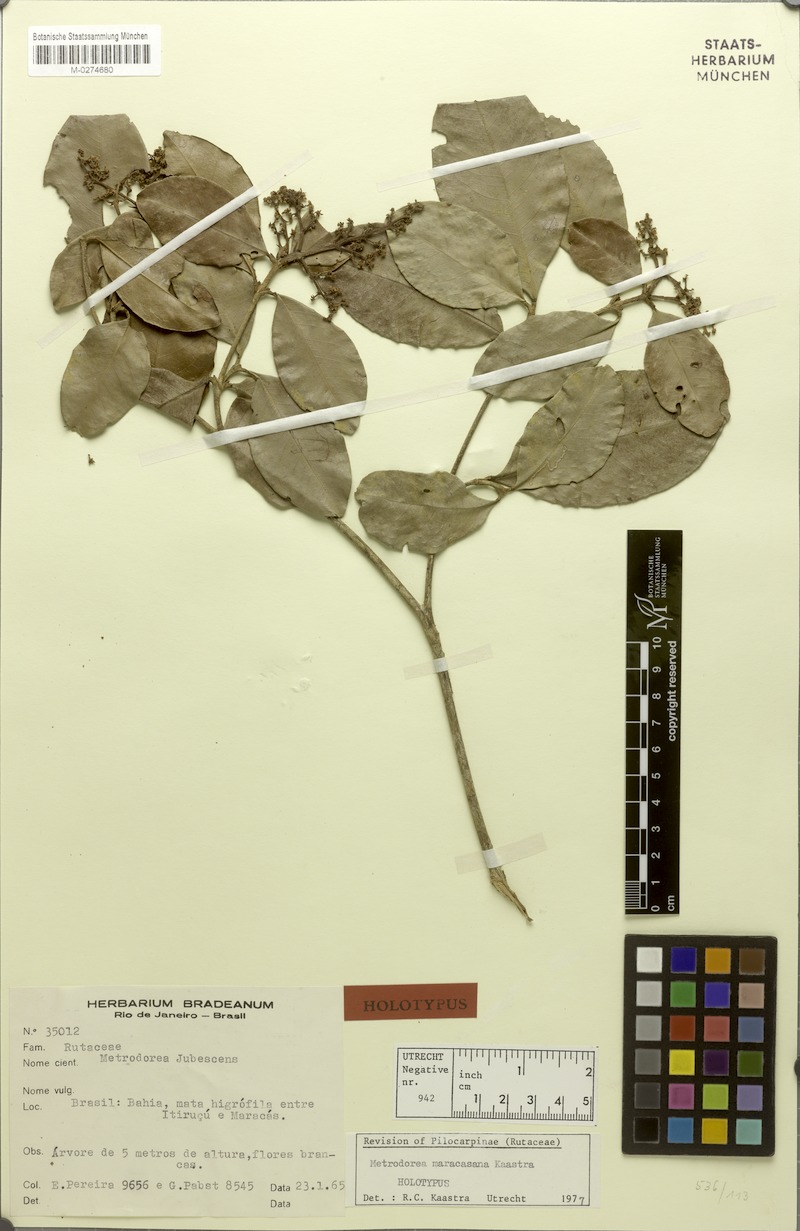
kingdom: Plantae
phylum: Tracheophyta
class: Magnoliopsida
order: Sapindales
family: Rutaceae
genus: Metrodorea
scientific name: Metrodorea maracasana
